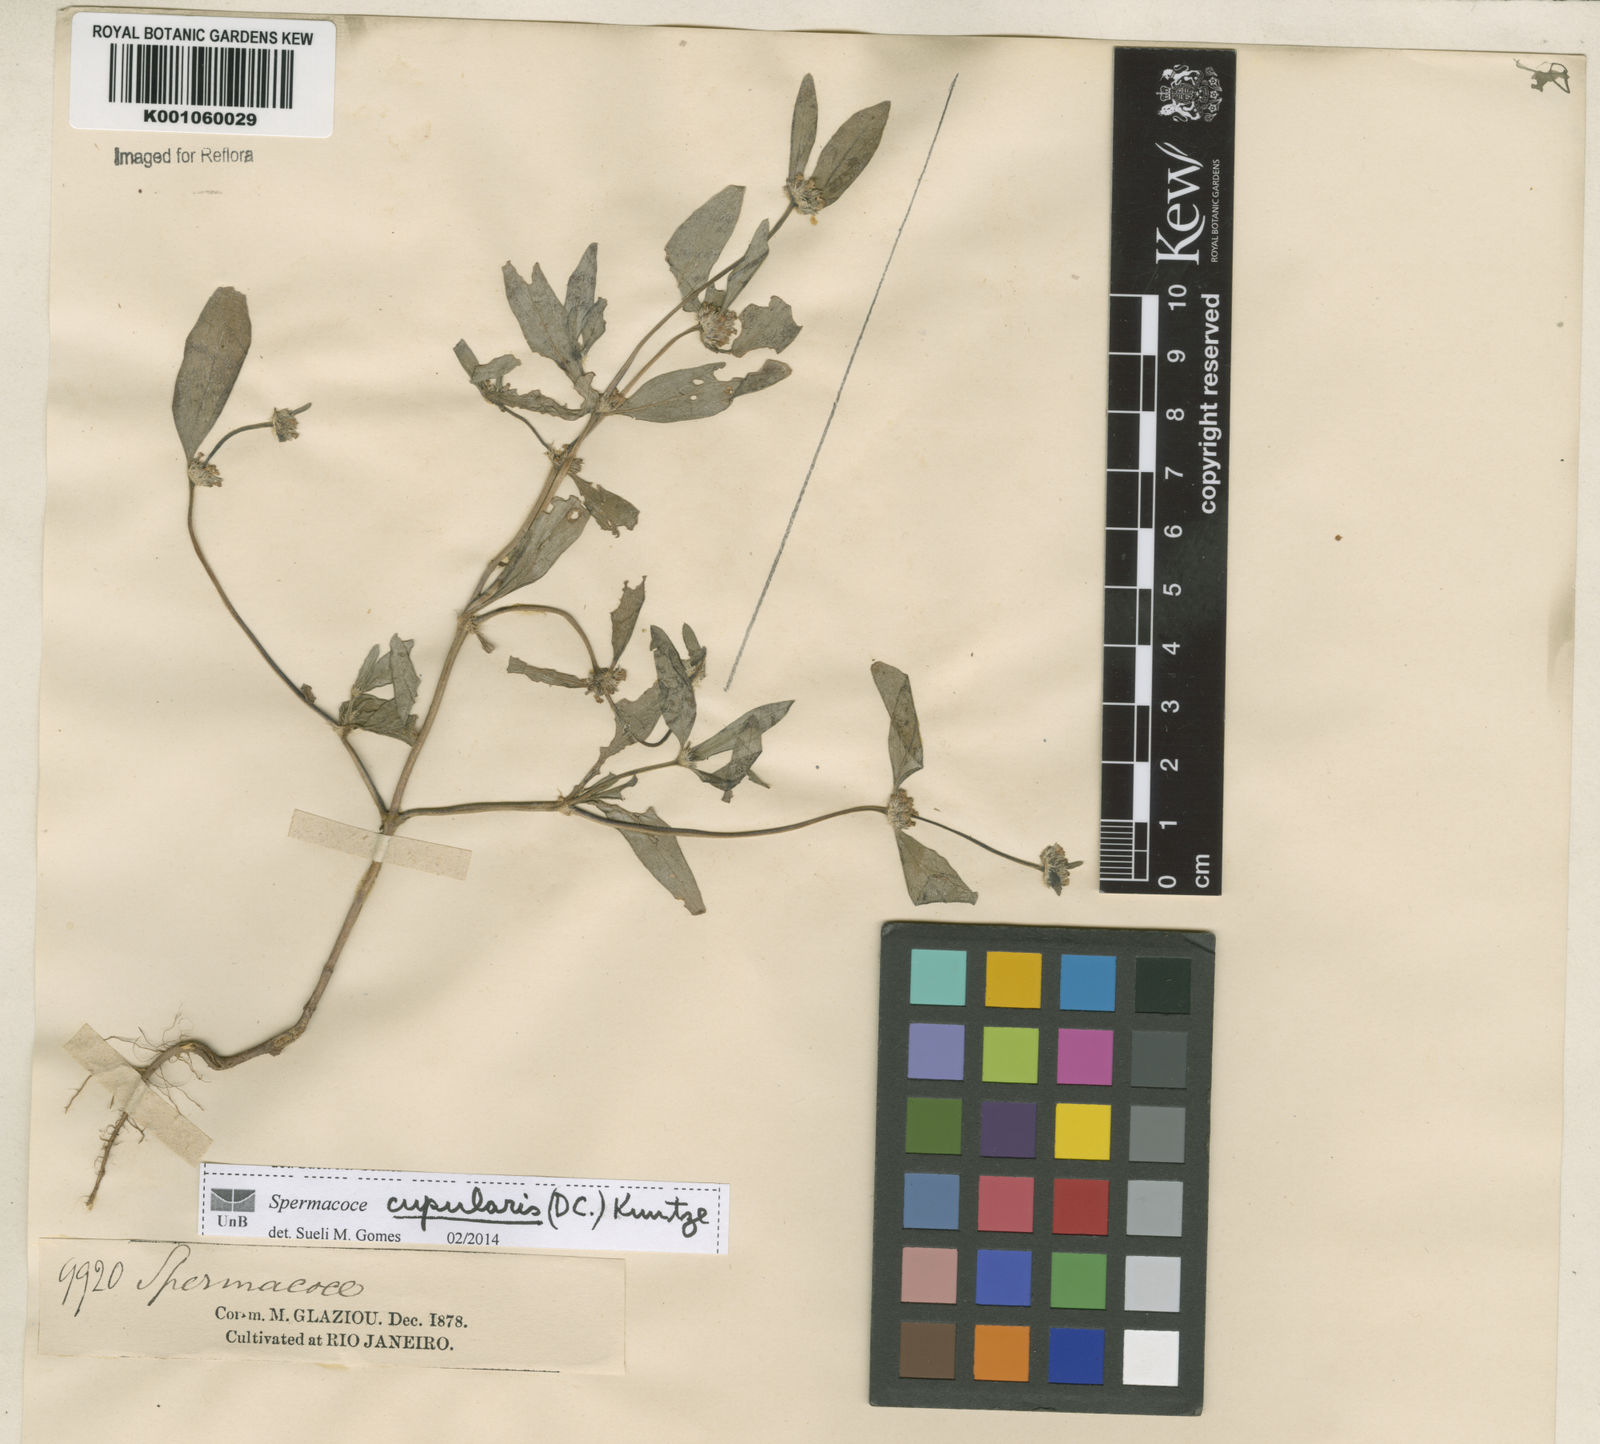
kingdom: Plantae
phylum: Tracheophyta
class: Magnoliopsida
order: Gentianales
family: Rubiaceae
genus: Spermacoce
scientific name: Spermacoce cupularis
